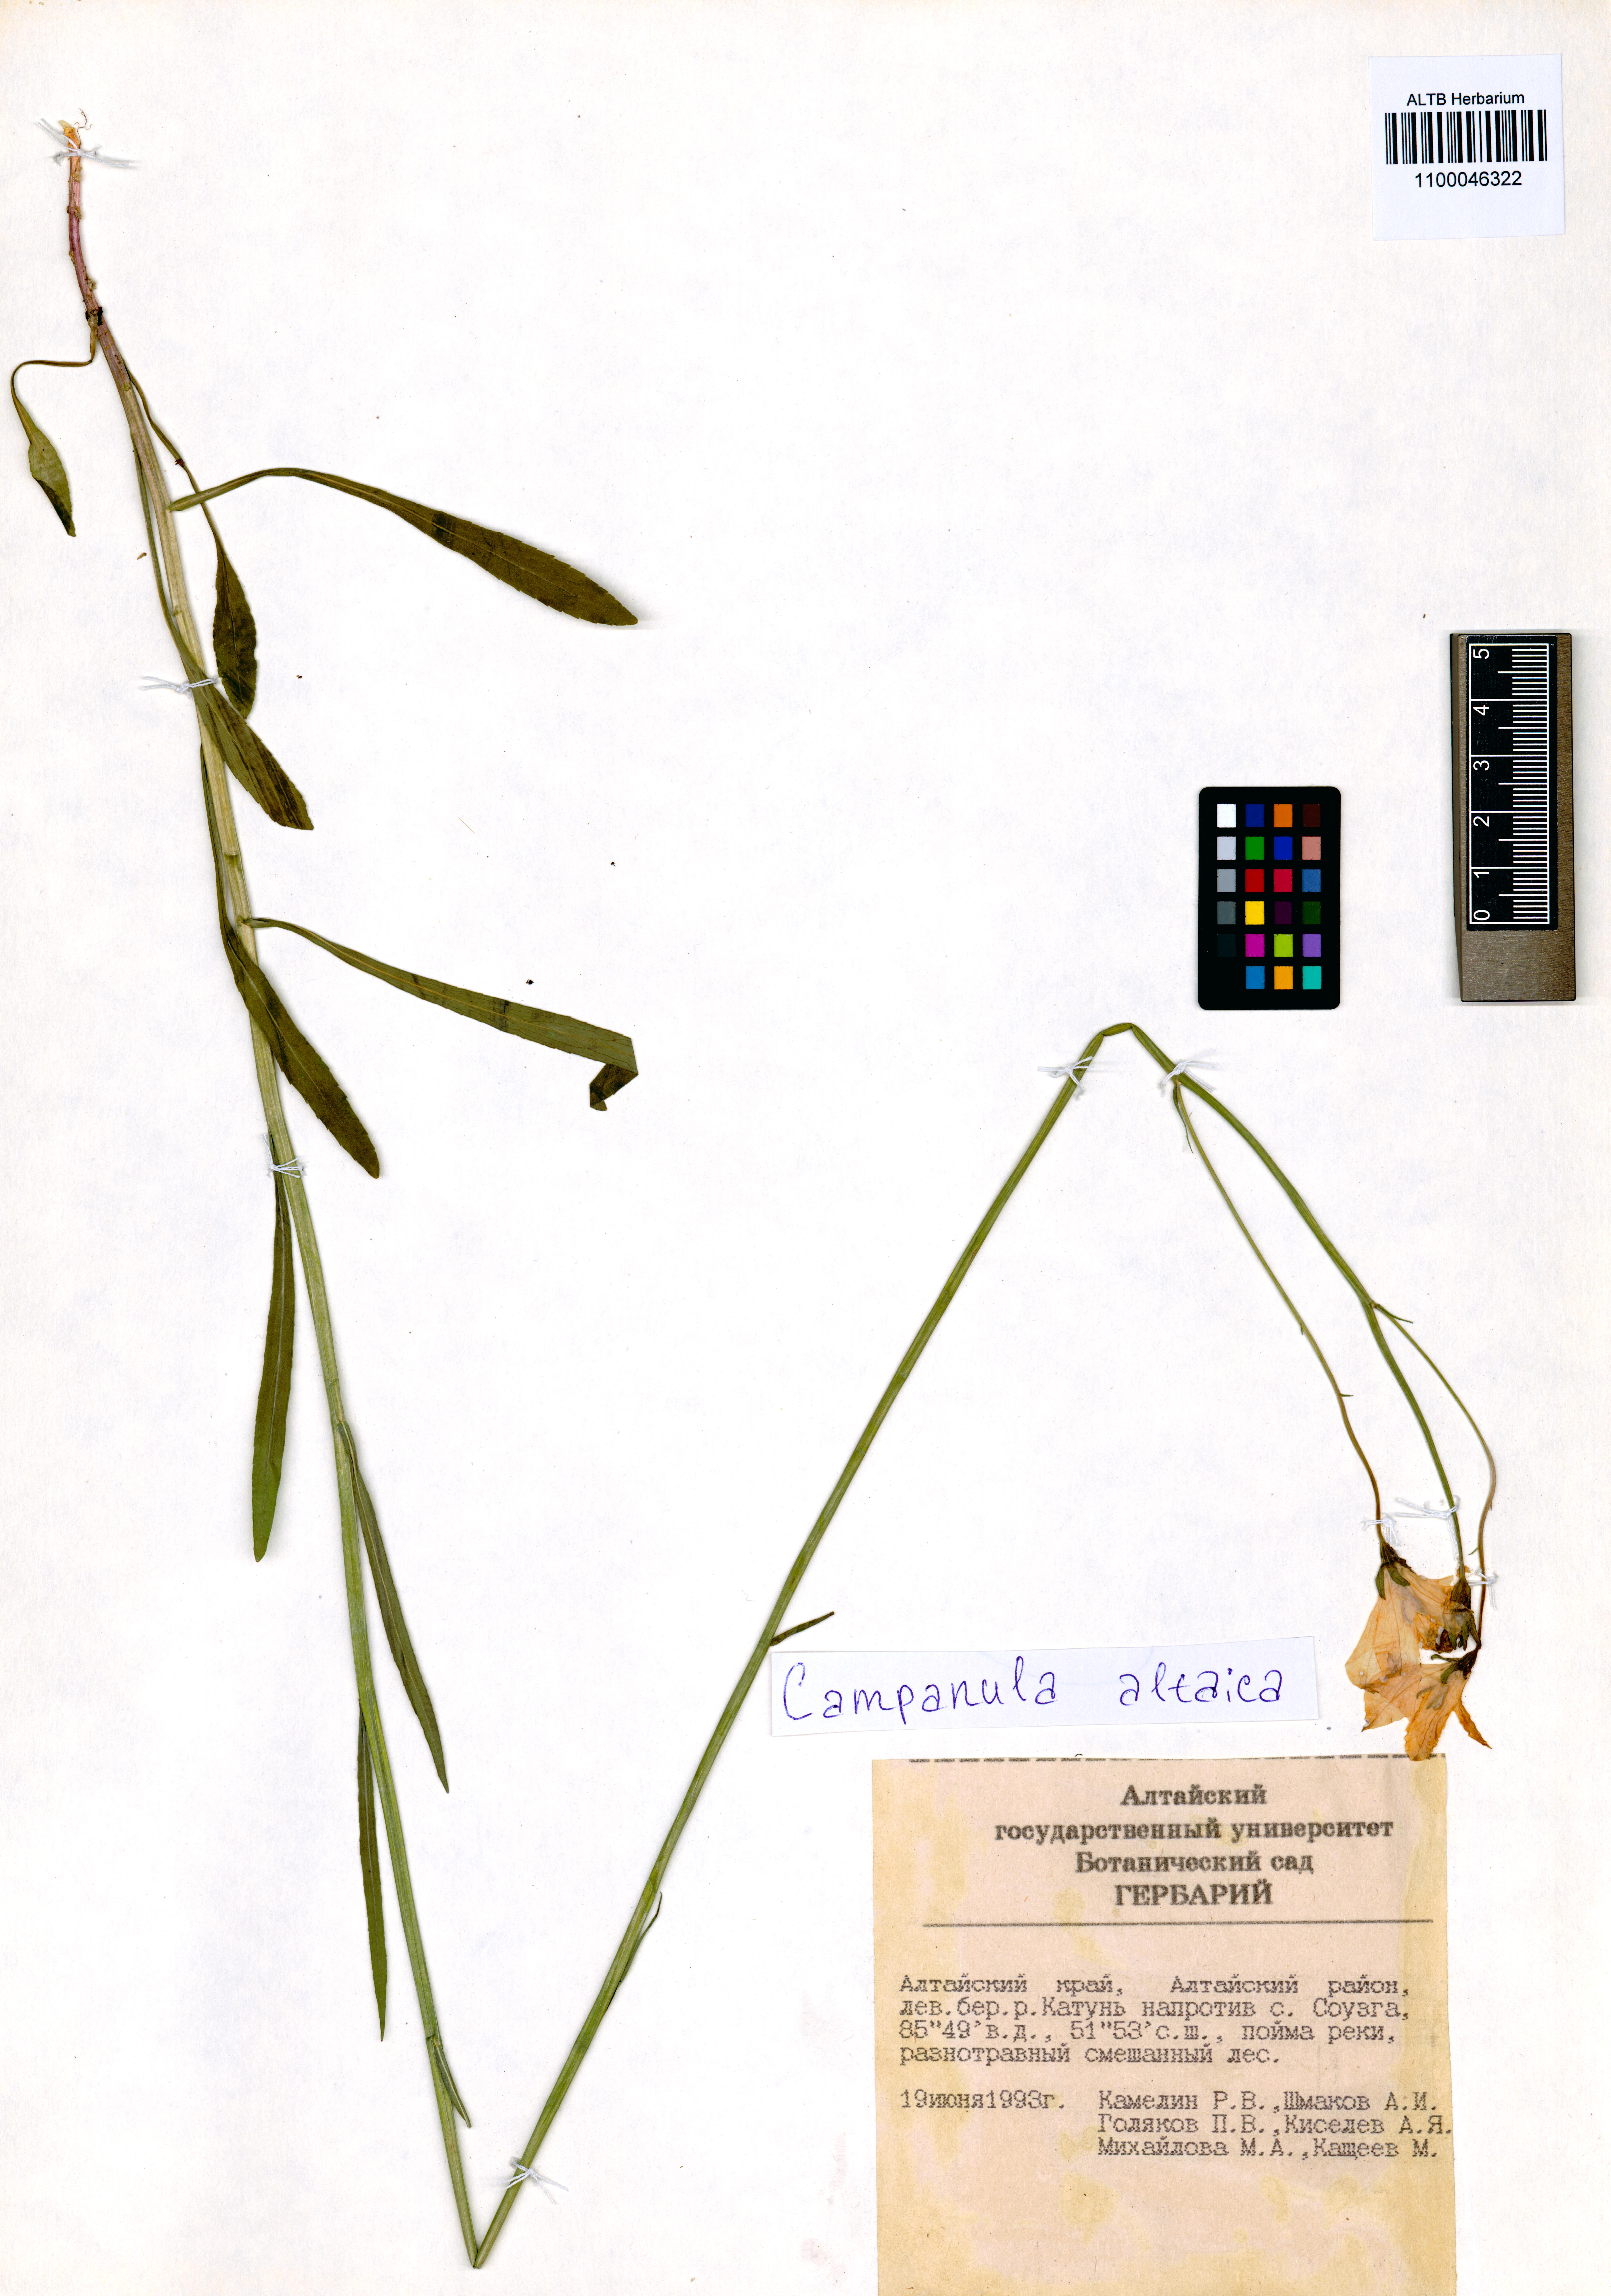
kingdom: Plantae
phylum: Tracheophyta
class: Magnoliopsida
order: Asterales
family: Campanulaceae
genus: Campanula
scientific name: Campanula stevenii
